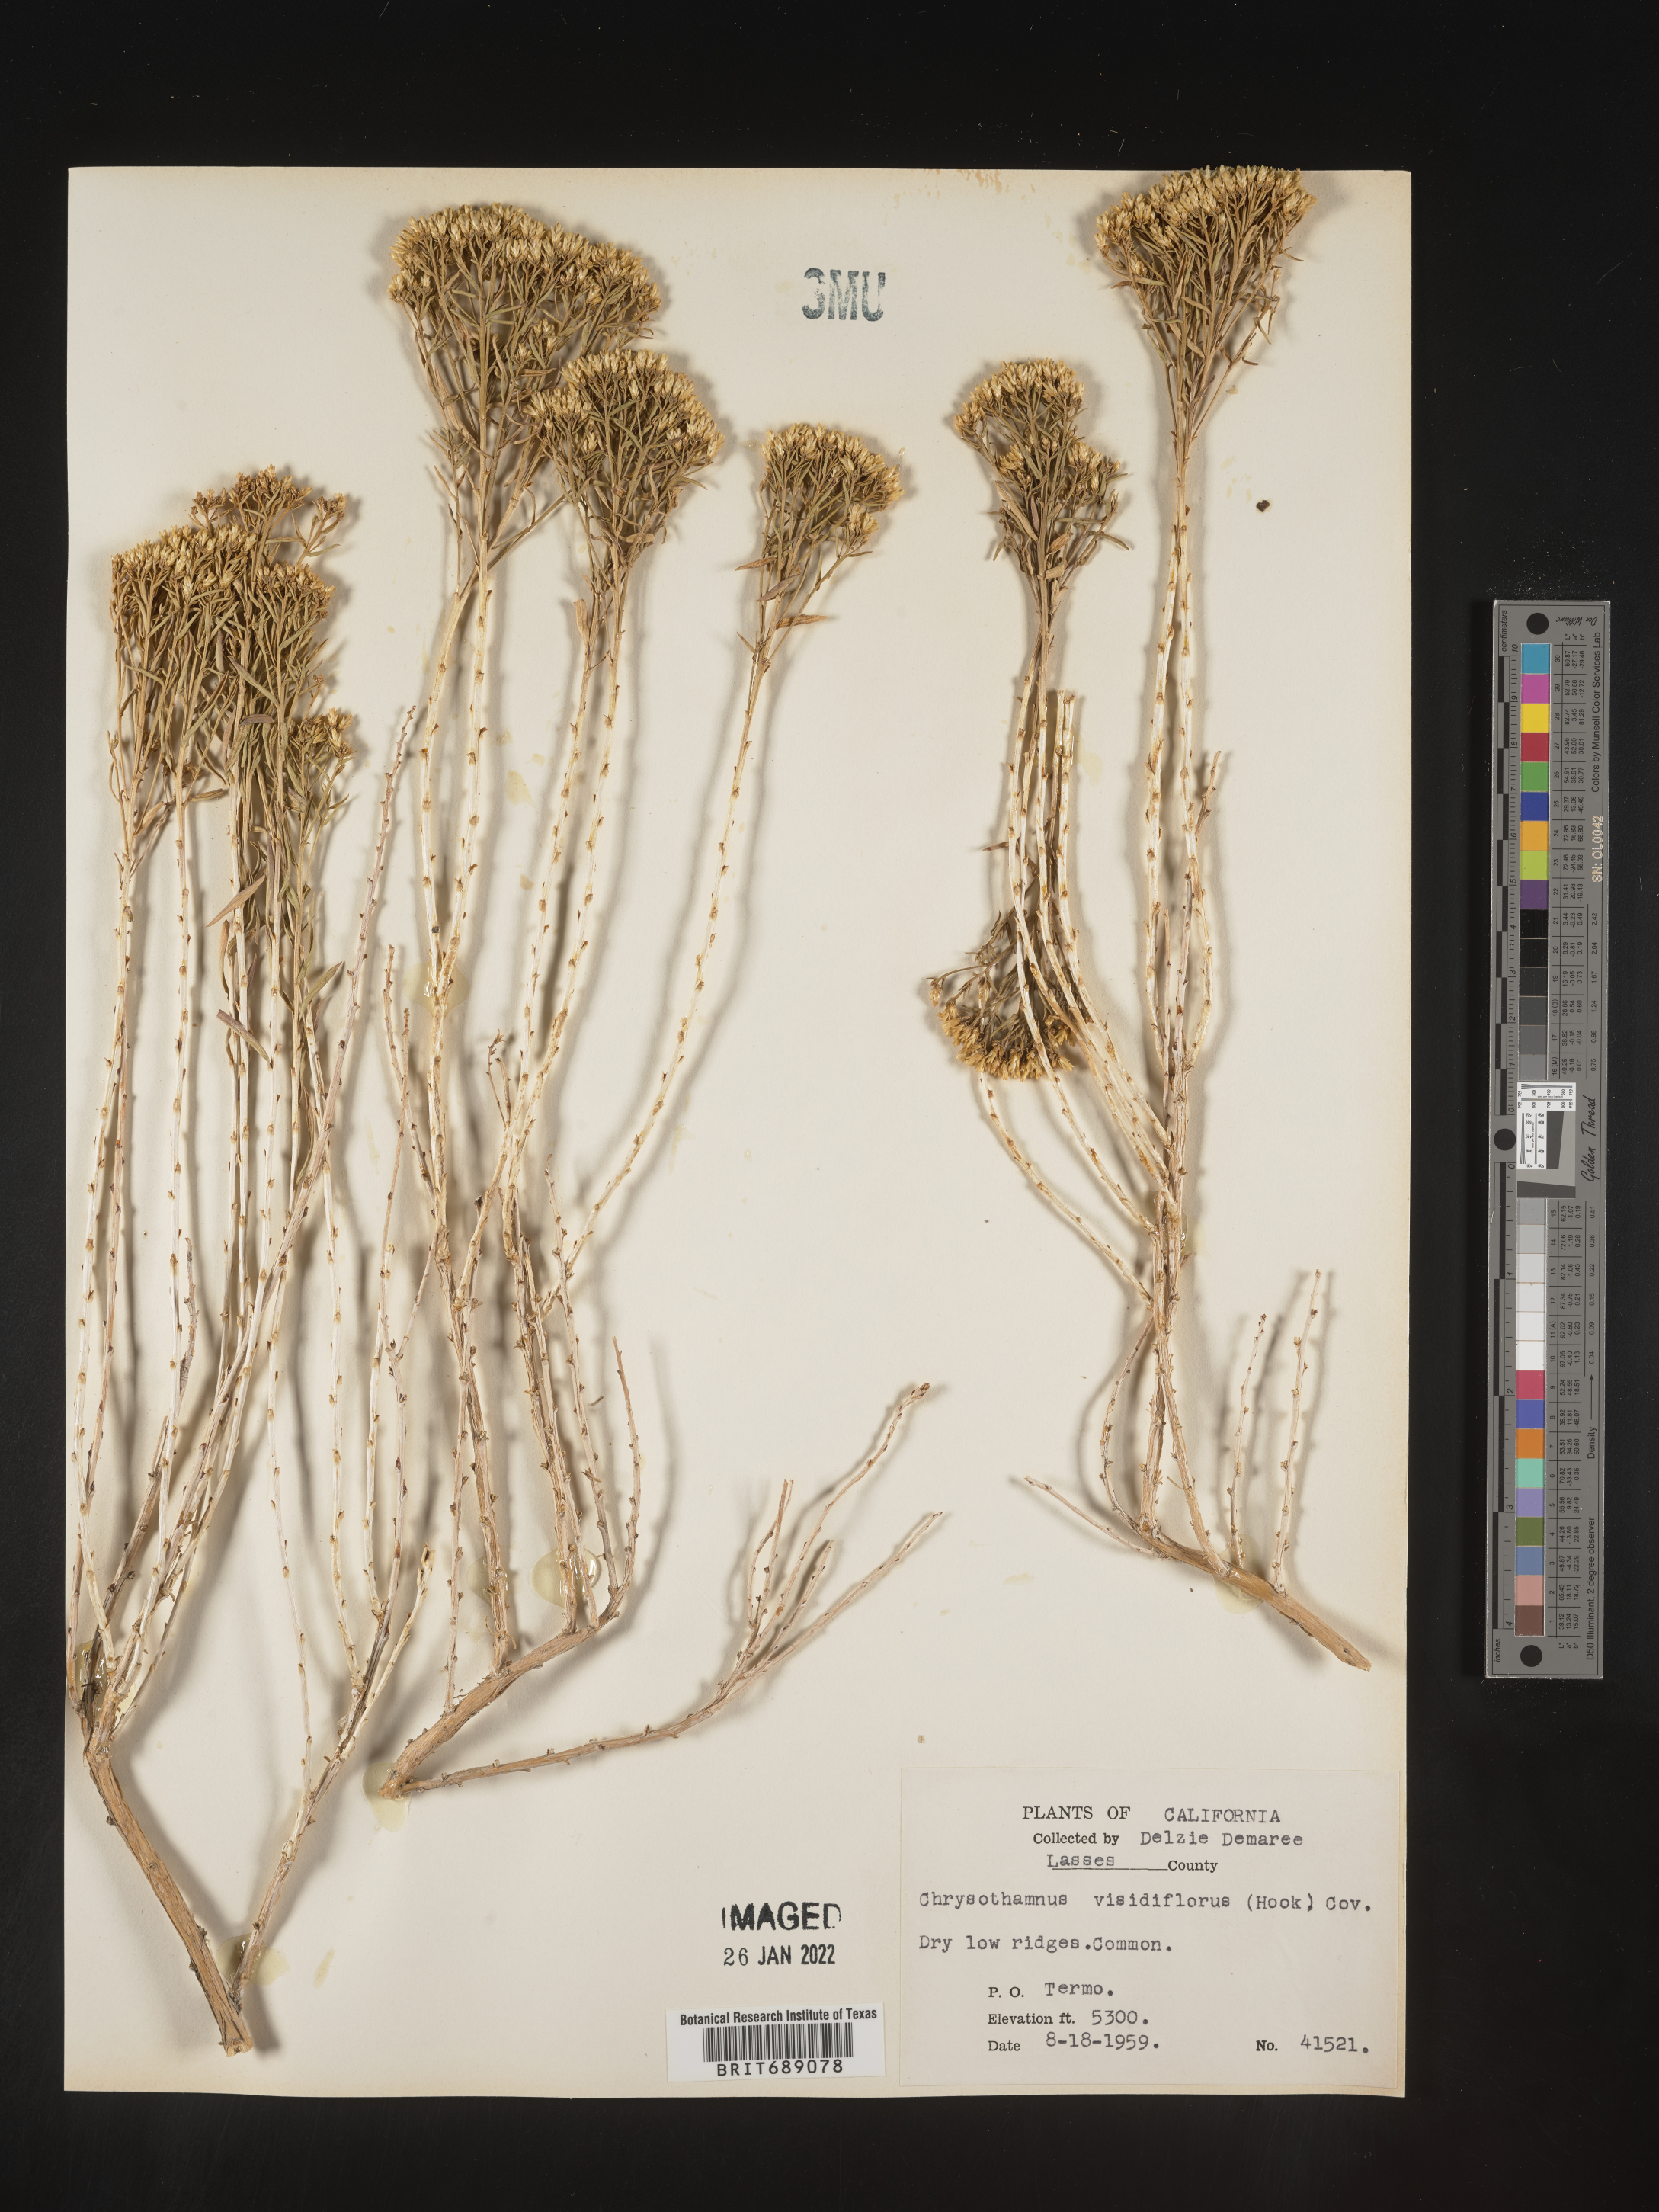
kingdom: Plantae
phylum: Tracheophyta
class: Magnoliopsida
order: Asterales
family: Asteraceae
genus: Chrysothamnus
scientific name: Chrysothamnus viscidiflorus
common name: Yellow rabbitbrush
